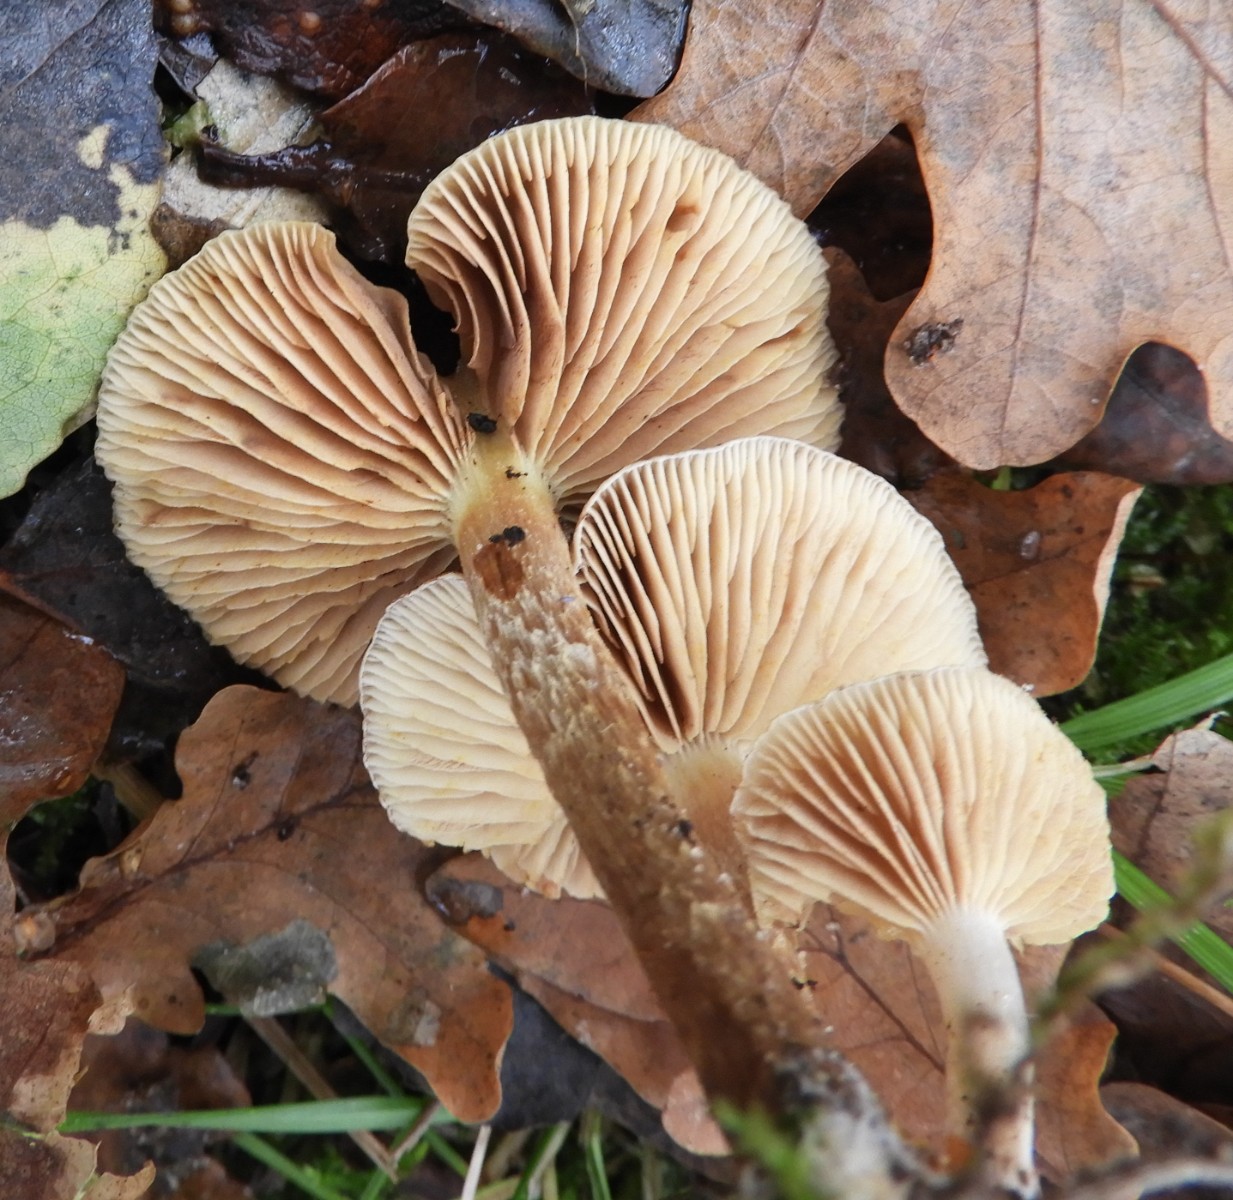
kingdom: Fungi
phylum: Basidiomycota
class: Agaricomycetes
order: Agaricales
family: Strophariaceae
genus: Pholiota
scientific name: Pholiota gummosa
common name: grøngul skælhat
